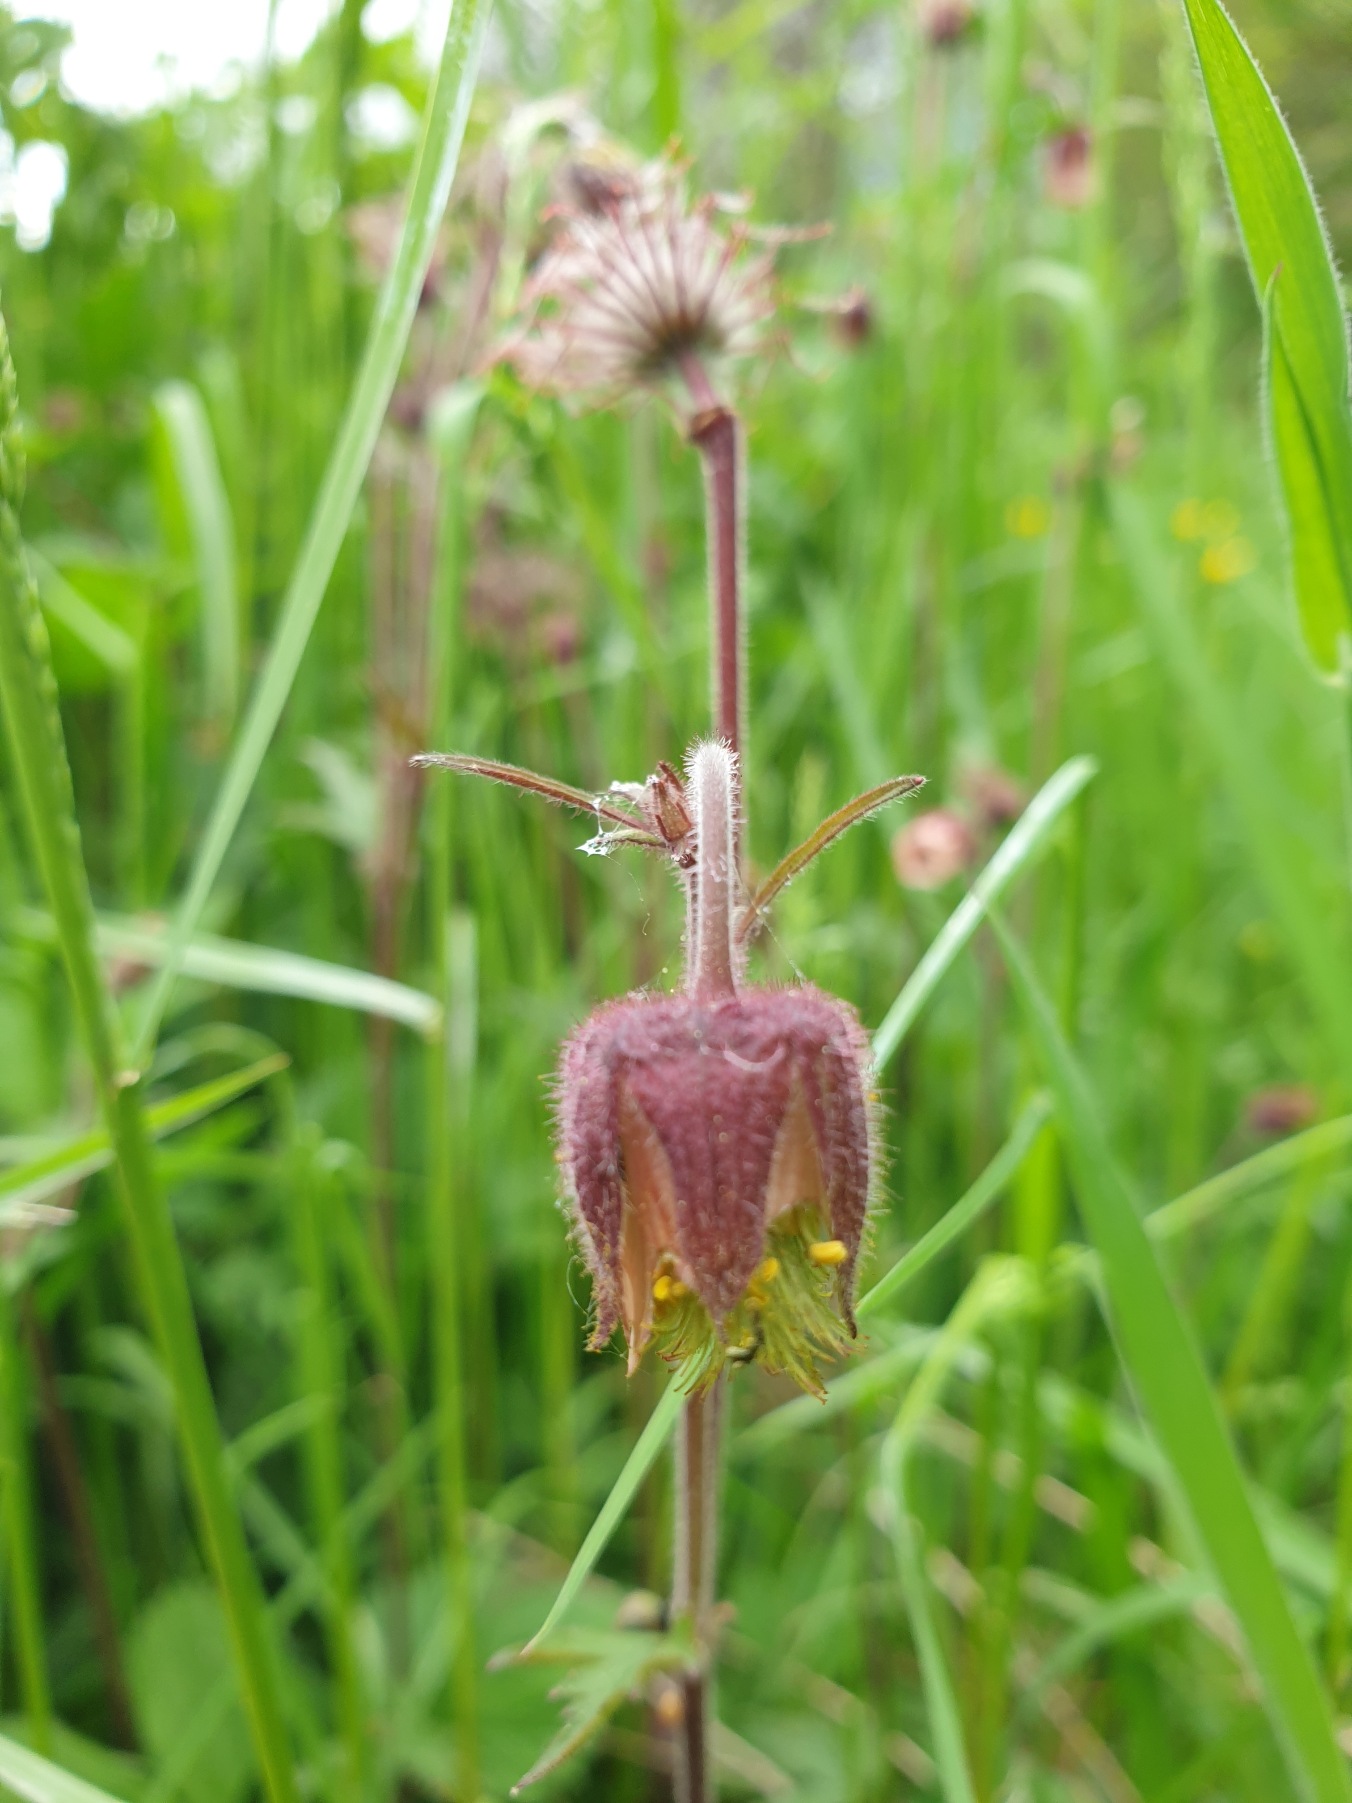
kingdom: Plantae
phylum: Tracheophyta
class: Magnoliopsida
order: Rosales
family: Rosaceae
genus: Geum
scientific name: Geum rivale
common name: Eng-nellikerod
